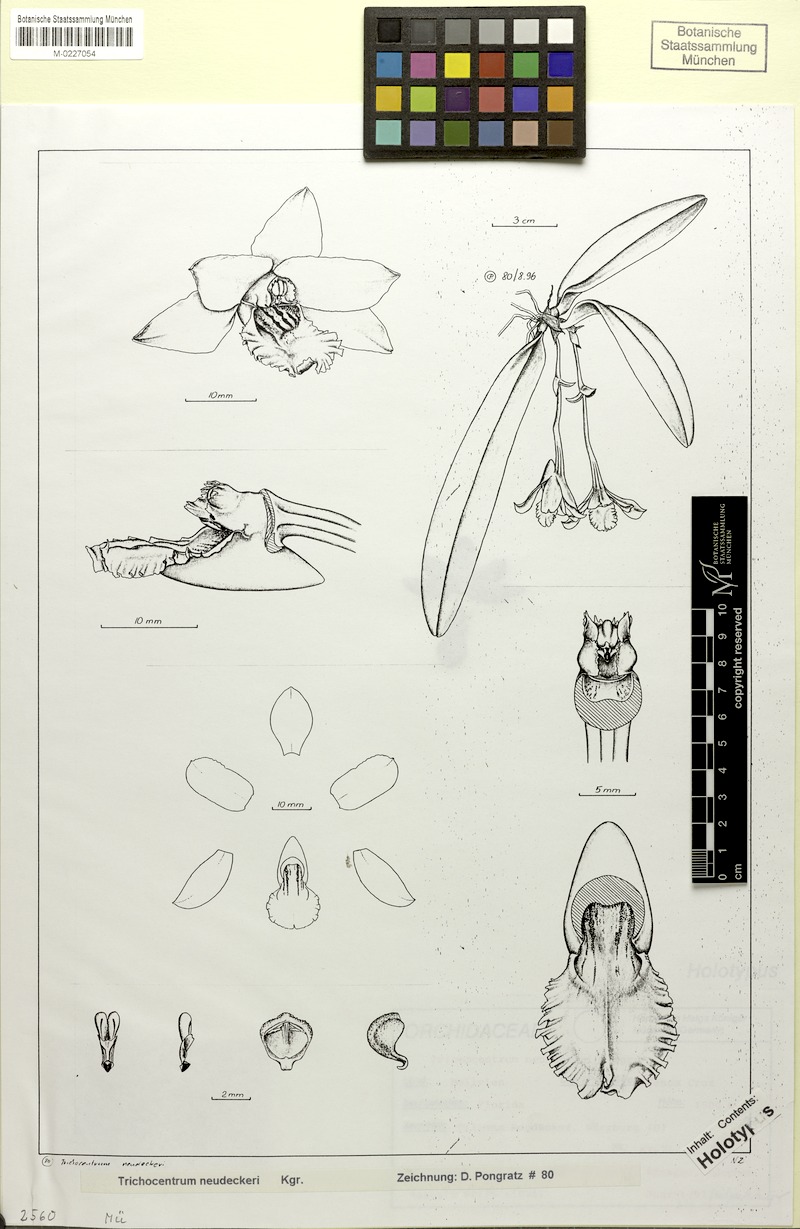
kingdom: Plantae
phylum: Tracheophyta
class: Liliopsida
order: Asparagales
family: Orchidaceae
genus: Trichocentrum
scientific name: Trichocentrum neudeckeri
